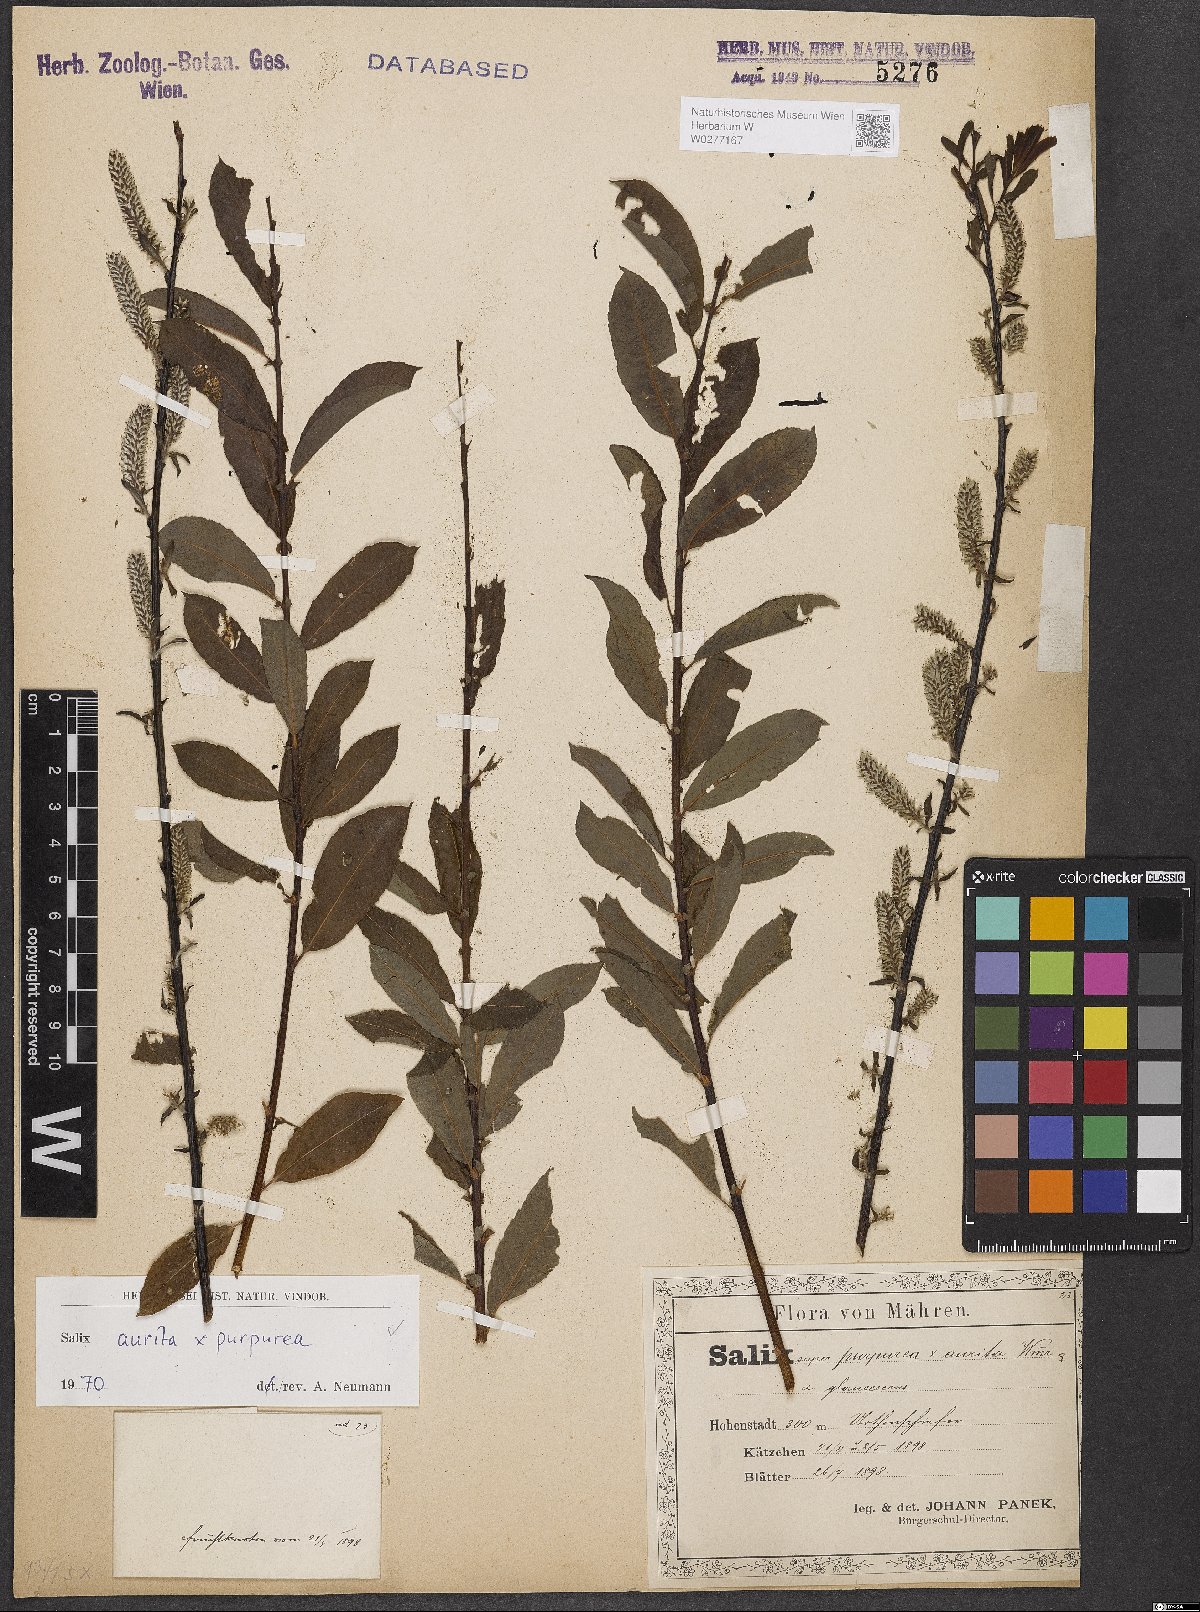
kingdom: Plantae
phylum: Tracheophyta
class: Magnoliopsida
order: Malpighiales
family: Salicaceae
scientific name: Salicaceae
